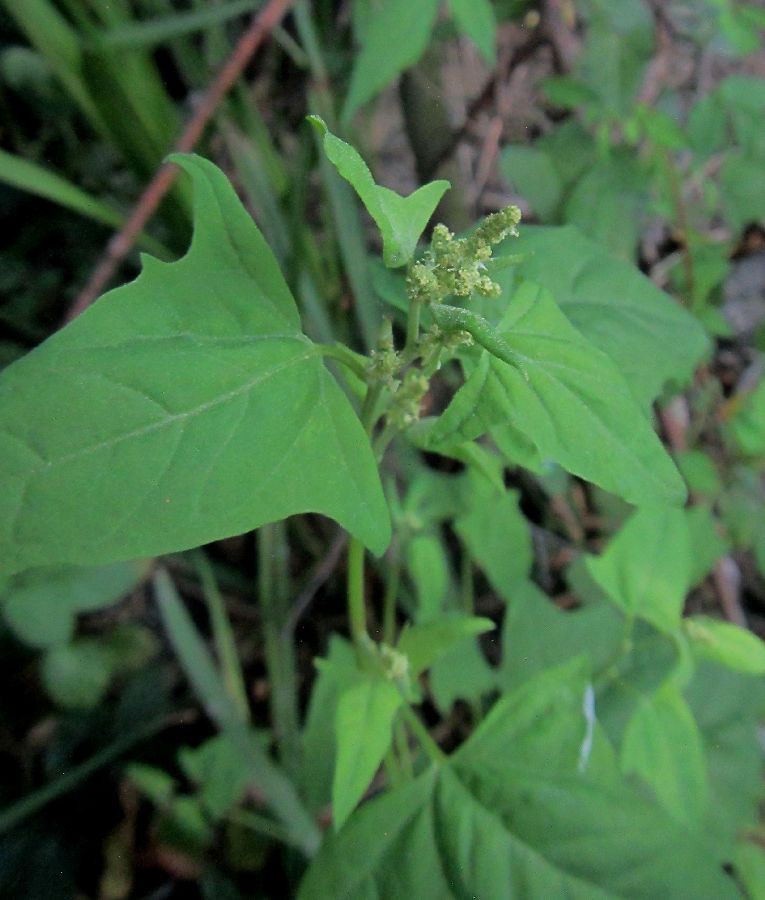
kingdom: Plantae
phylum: Tracheophyta
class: Magnoliopsida
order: Caryophyllales
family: Amaranthaceae
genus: Atriplex
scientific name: Atriplex prostrata
